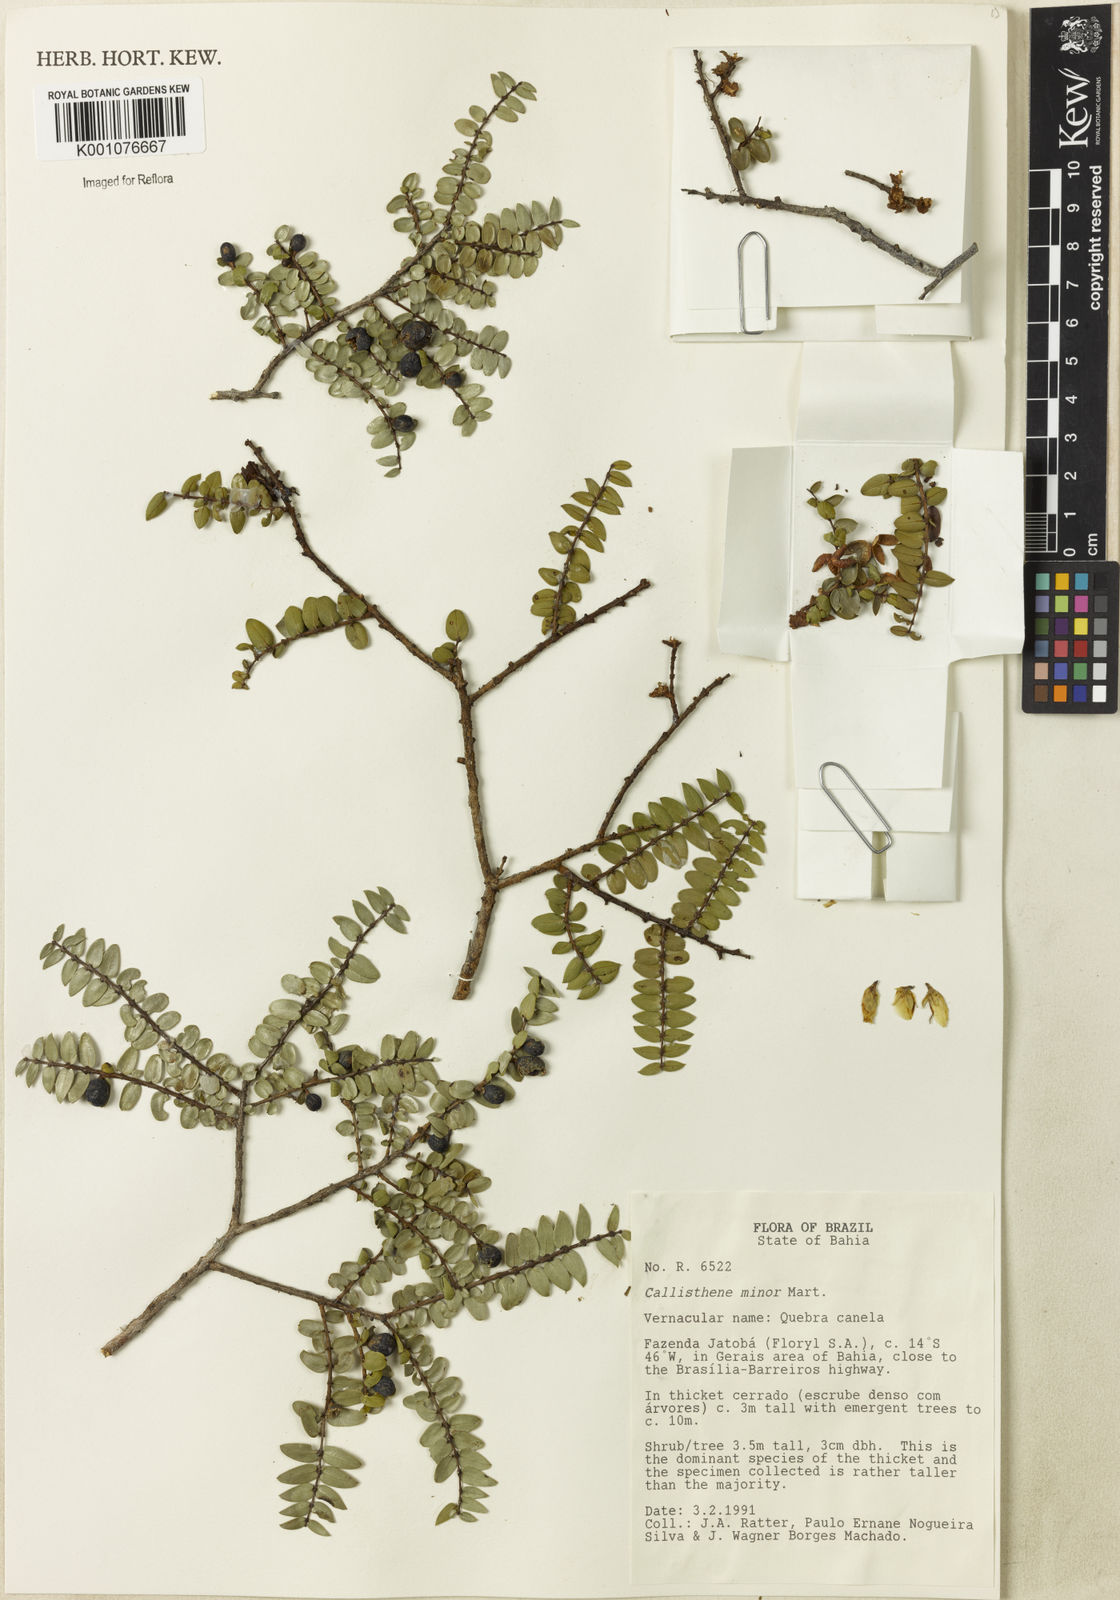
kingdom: Plantae
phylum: Tracheophyta
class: Magnoliopsida
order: Myrtales
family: Vochysiaceae
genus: Callisthene
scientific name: Callisthene minor
